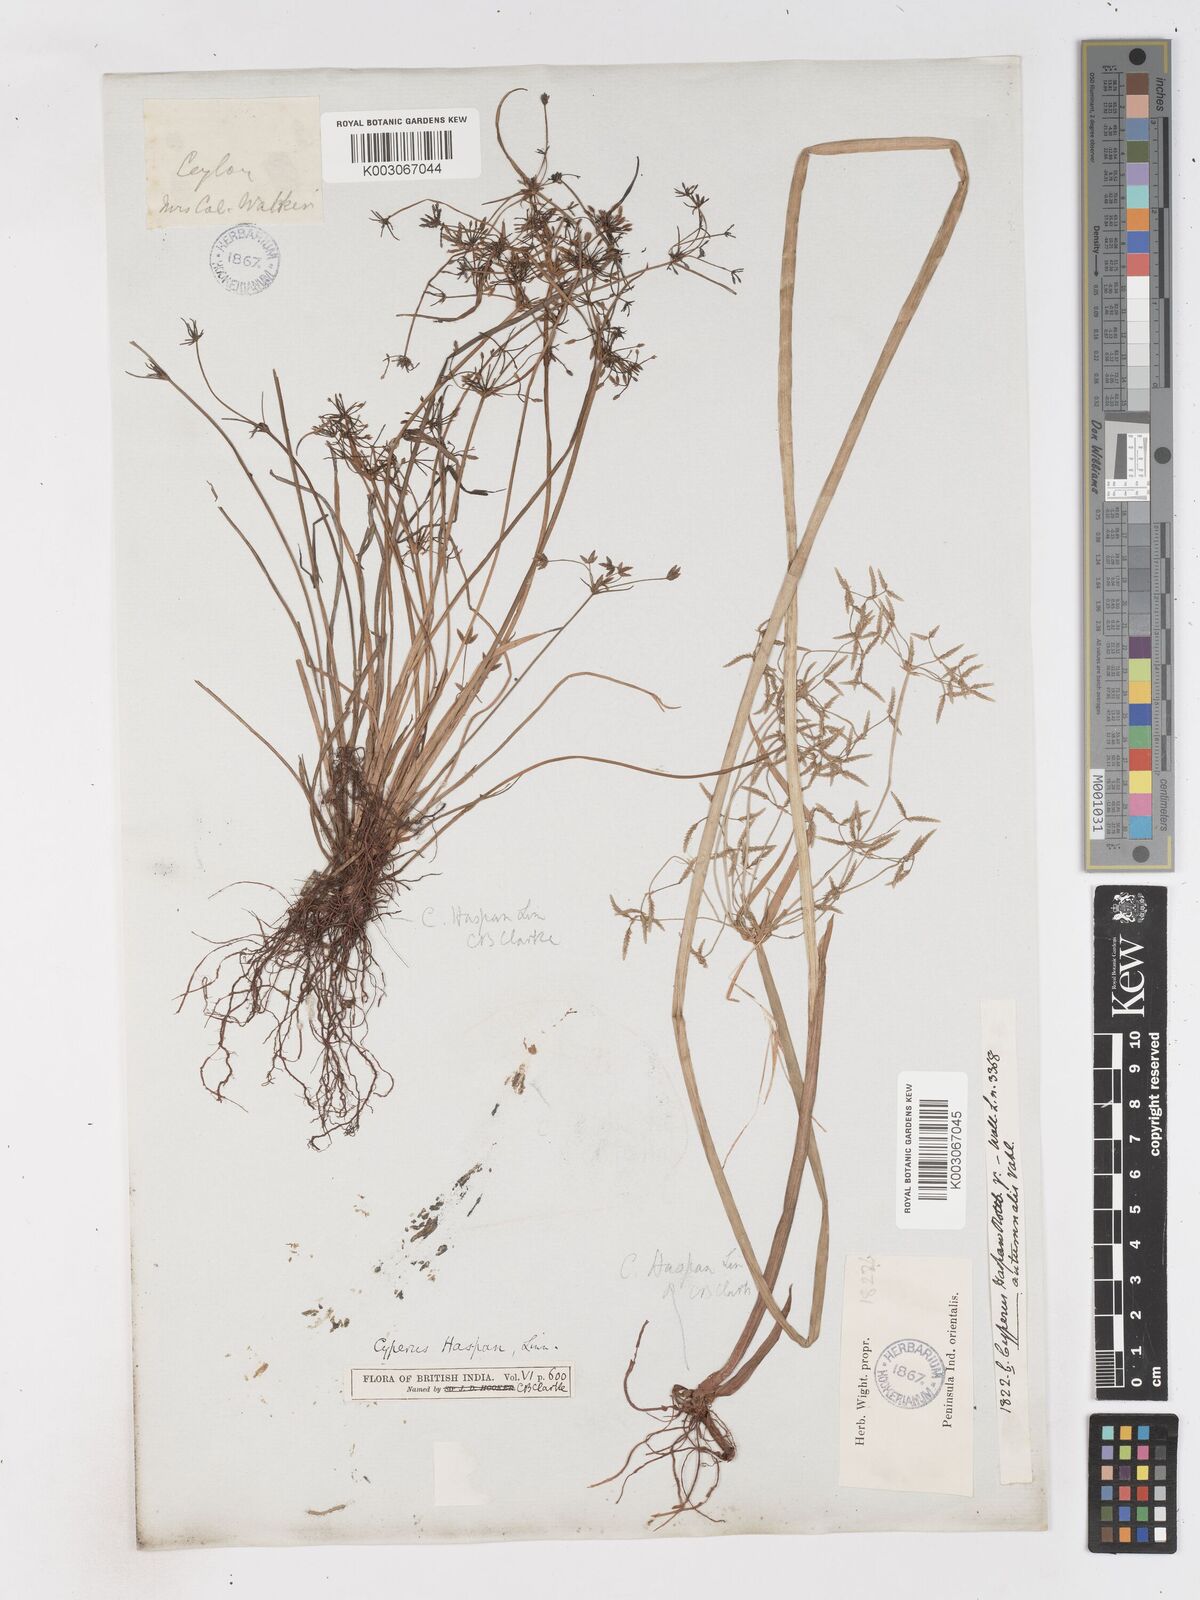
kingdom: Plantae
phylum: Tracheophyta
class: Liliopsida
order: Poales
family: Cyperaceae
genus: Cyperus
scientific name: Cyperus haspan
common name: Haspan flatsedge
